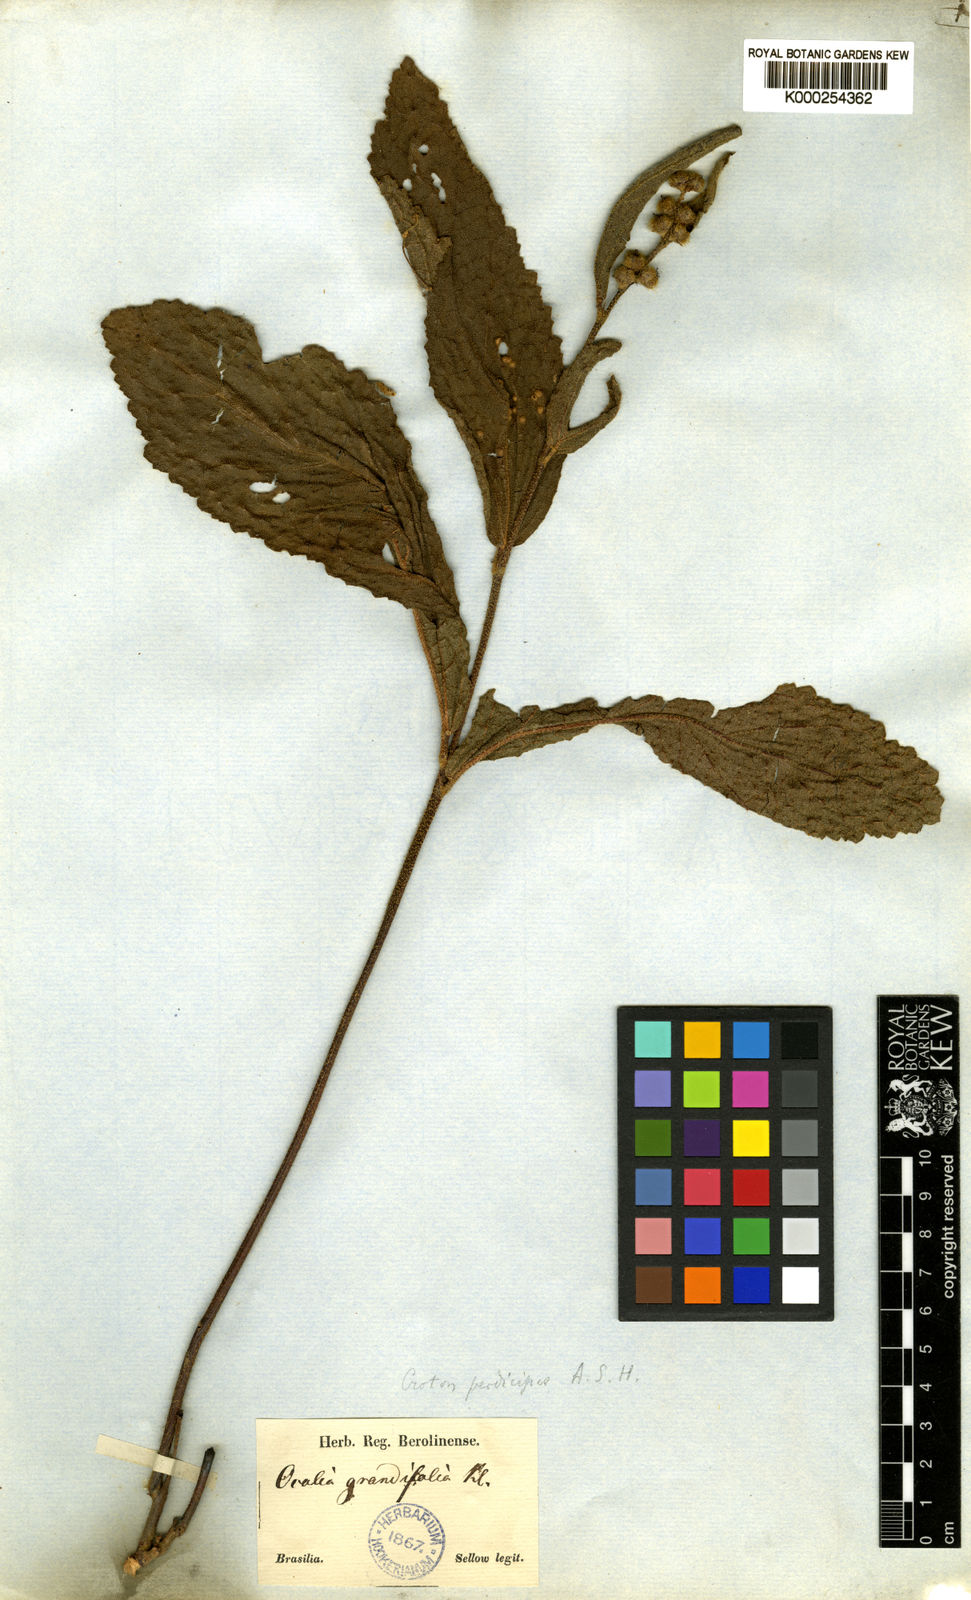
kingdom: Plantae
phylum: Tracheophyta
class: Magnoliopsida
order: Malpighiales
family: Euphorbiaceae
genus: Croton
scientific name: Croton antisyphiliticus
